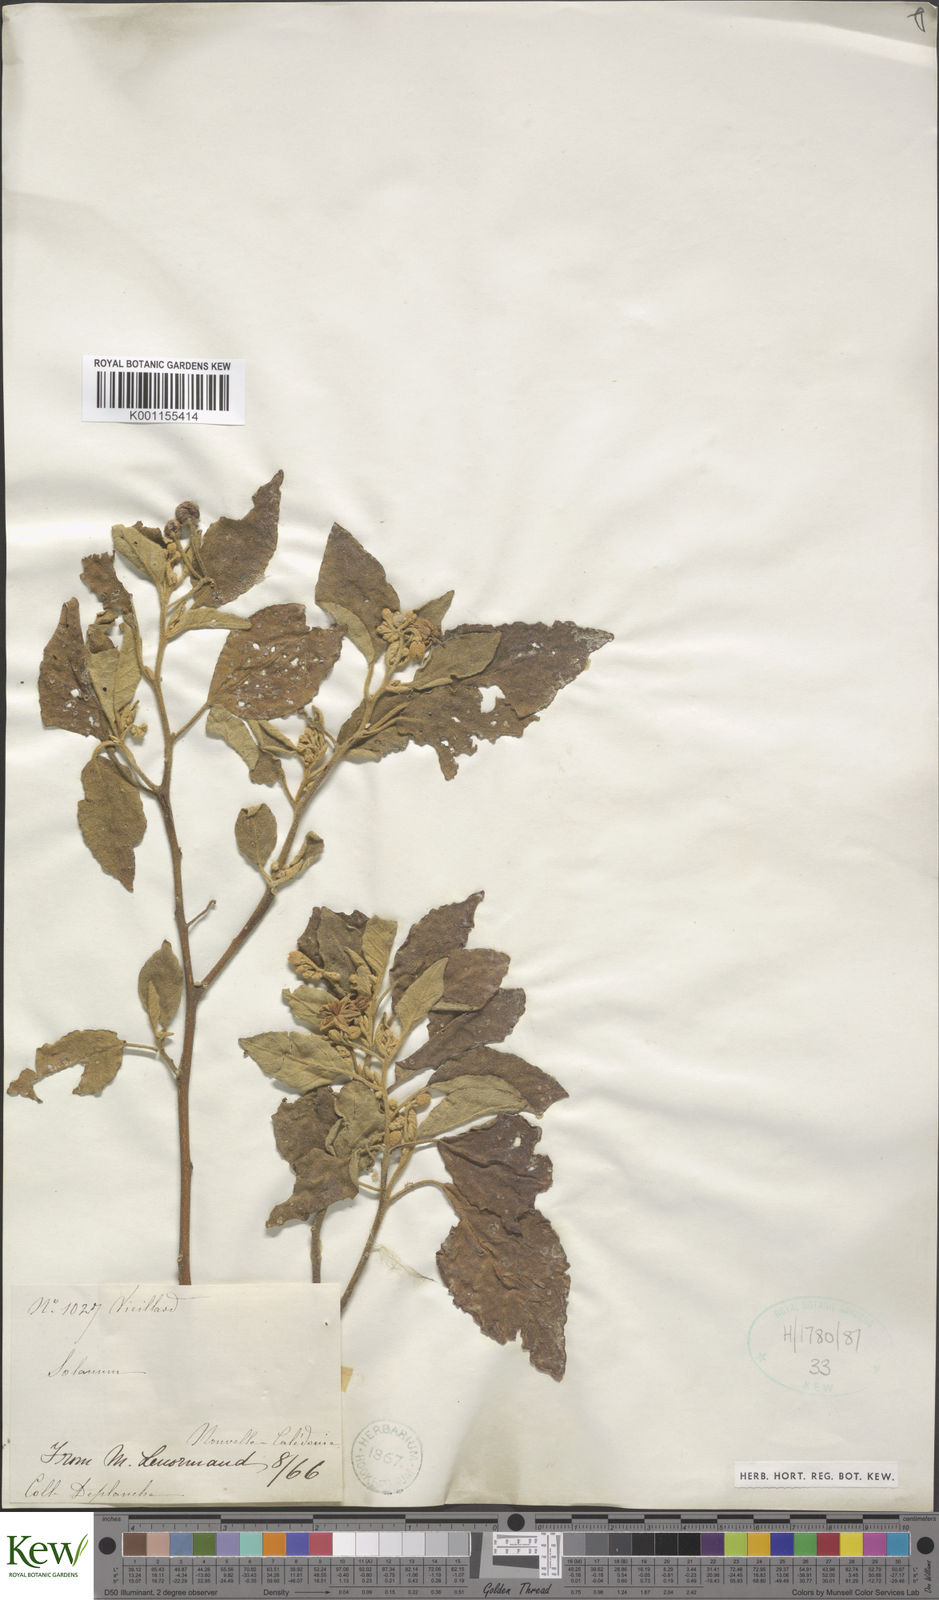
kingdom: Plantae
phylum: Tracheophyta
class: Magnoliopsida
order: Solanales
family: Solanaceae
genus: Solanum
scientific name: Solanum tetrandrum
